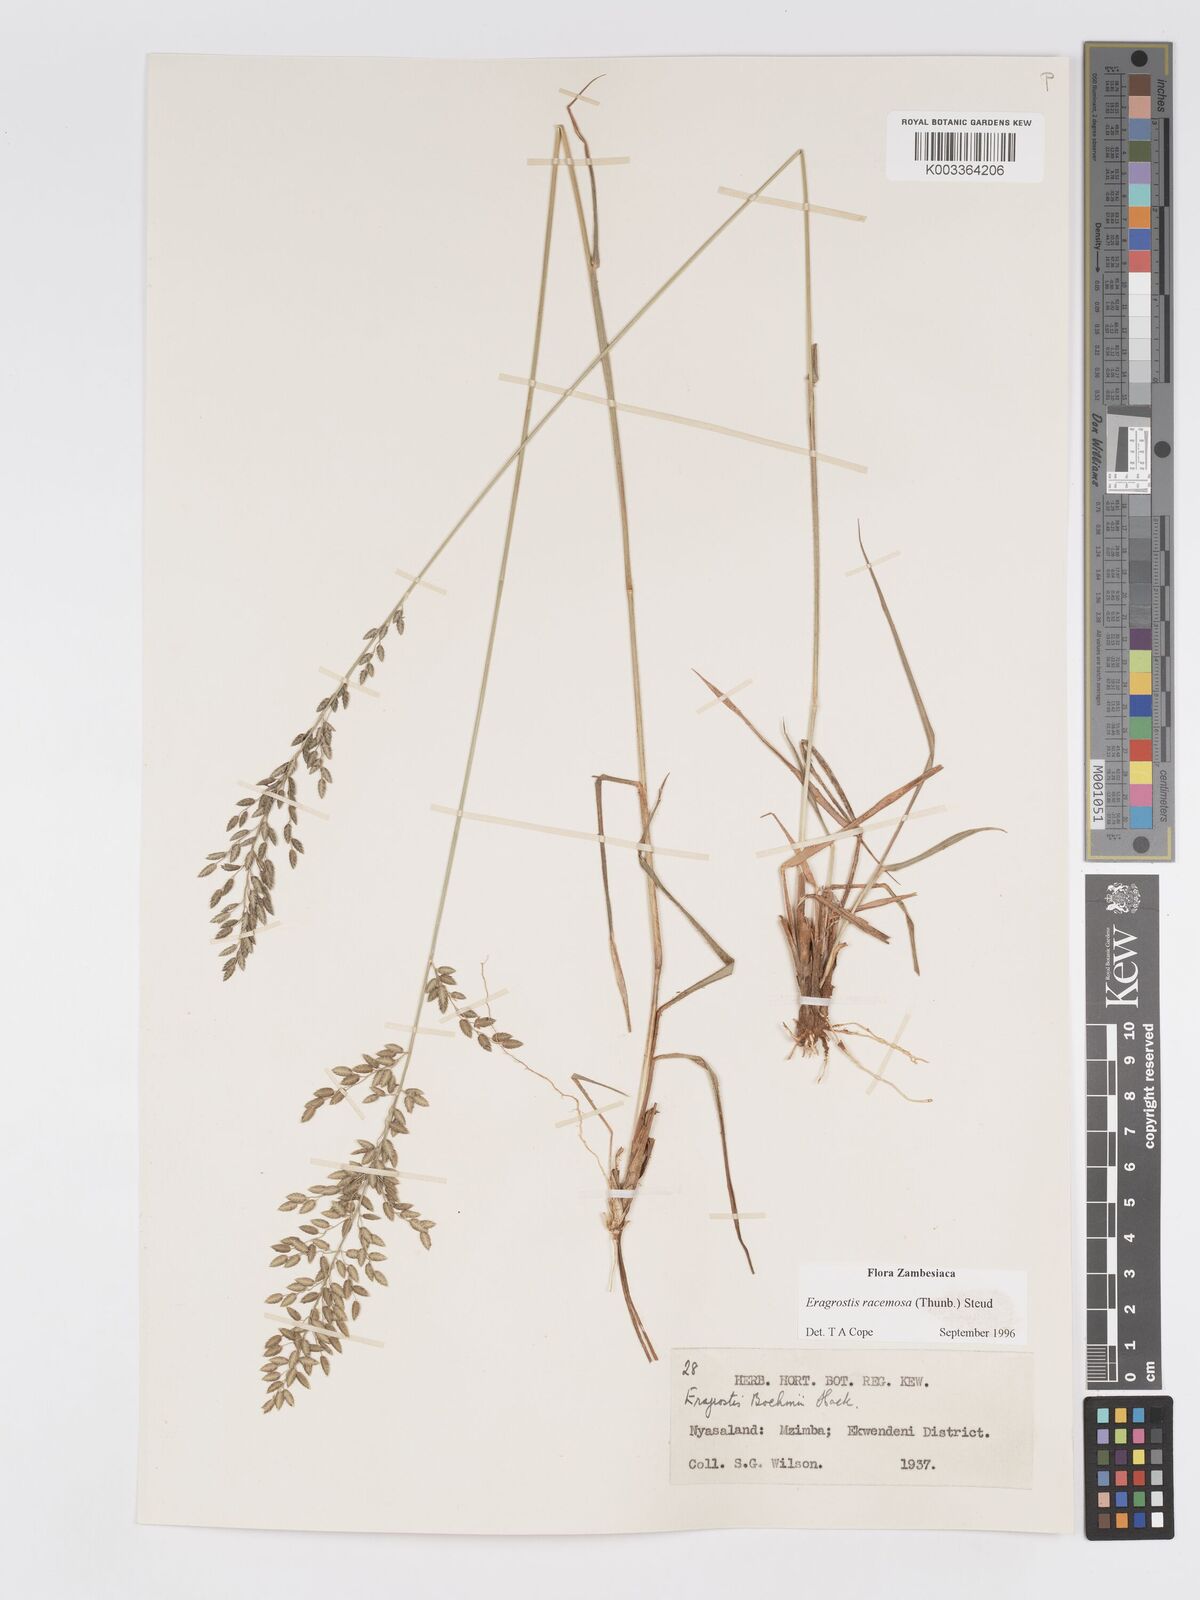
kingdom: Plantae
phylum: Tracheophyta
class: Liliopsida
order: Poales
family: Poaceae
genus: Eragrostis
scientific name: Eragrostis racemosa
